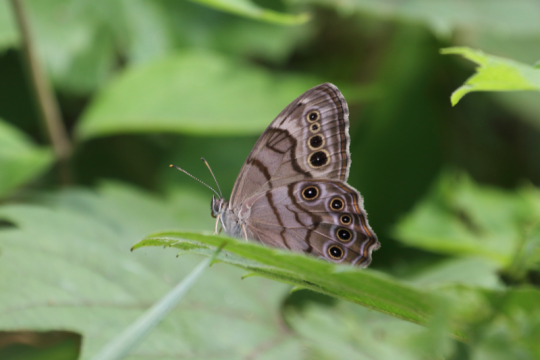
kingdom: Animalia
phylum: Arthropoda
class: Insecta
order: Lepidoptera
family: Nymphalidae
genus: Lethe
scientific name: Lethe anthedon
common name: Northern Pearly-Eye
